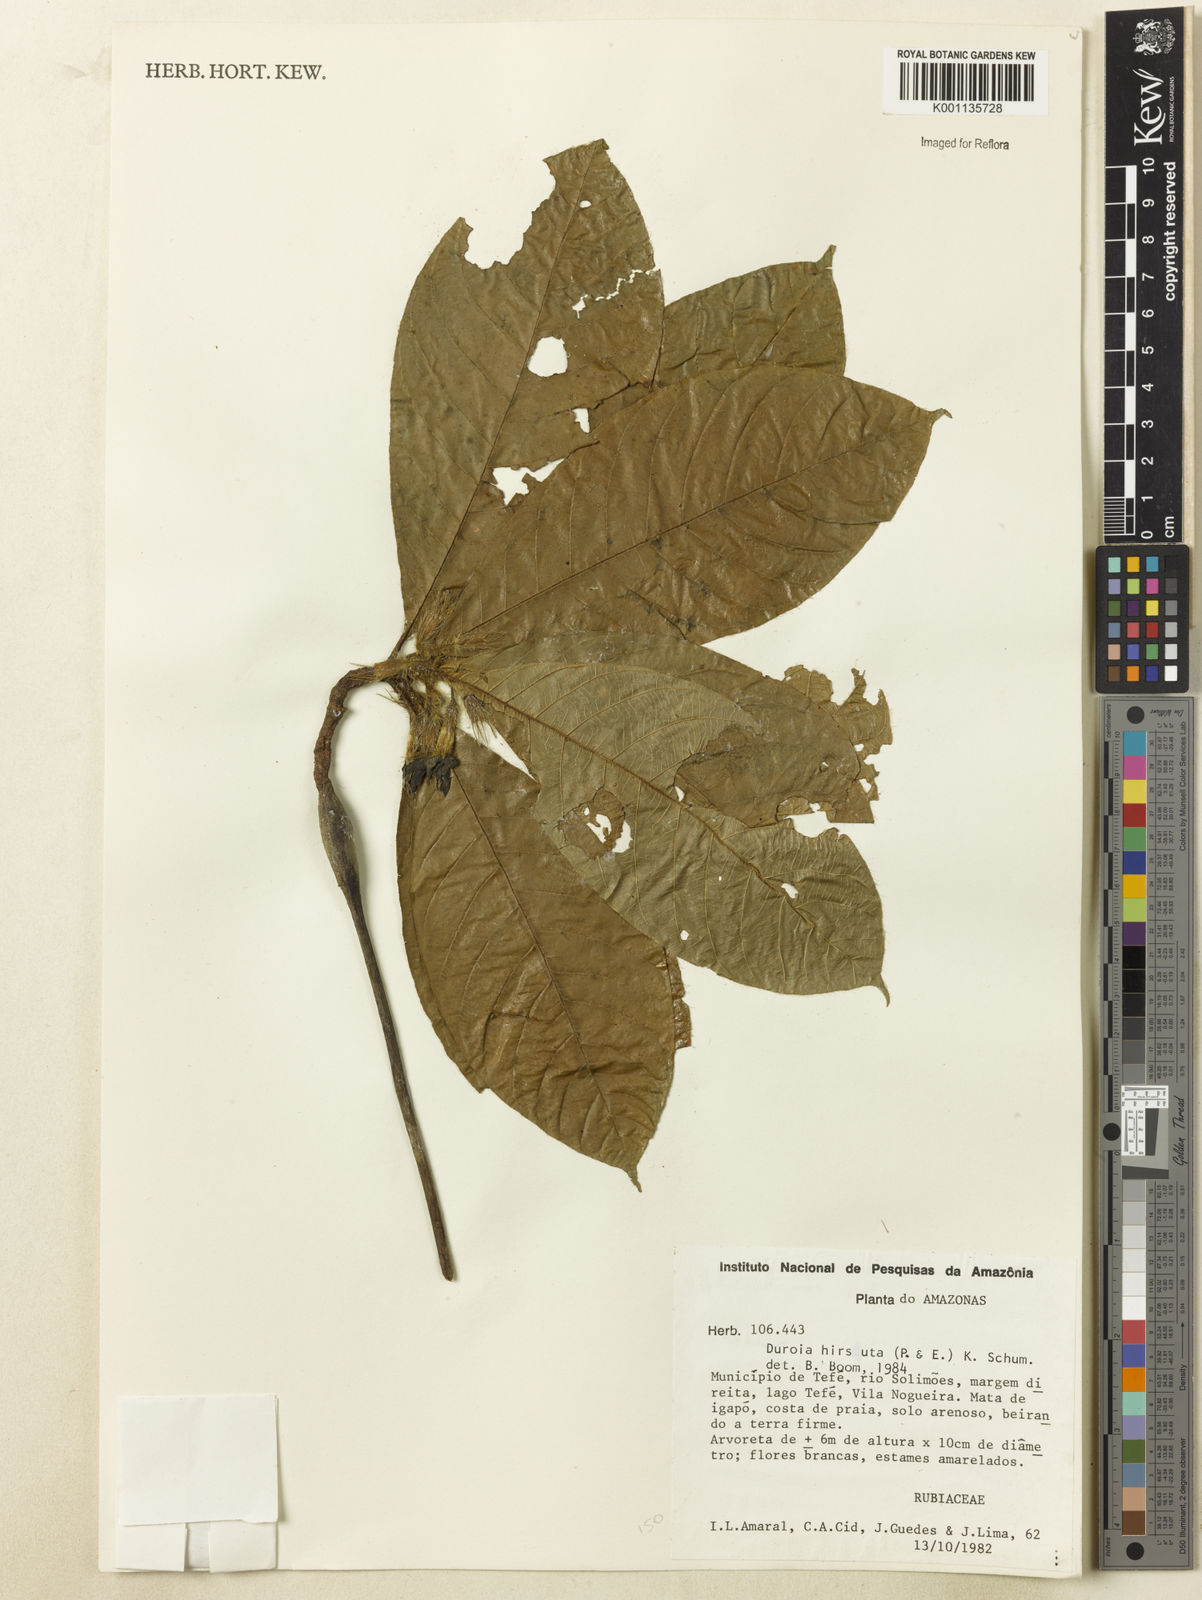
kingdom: Plantae
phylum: Tracheophyta
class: Magnoliopsida
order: Gentianales
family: Rubiaceae
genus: Duroia
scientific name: Duroia hirsuta
